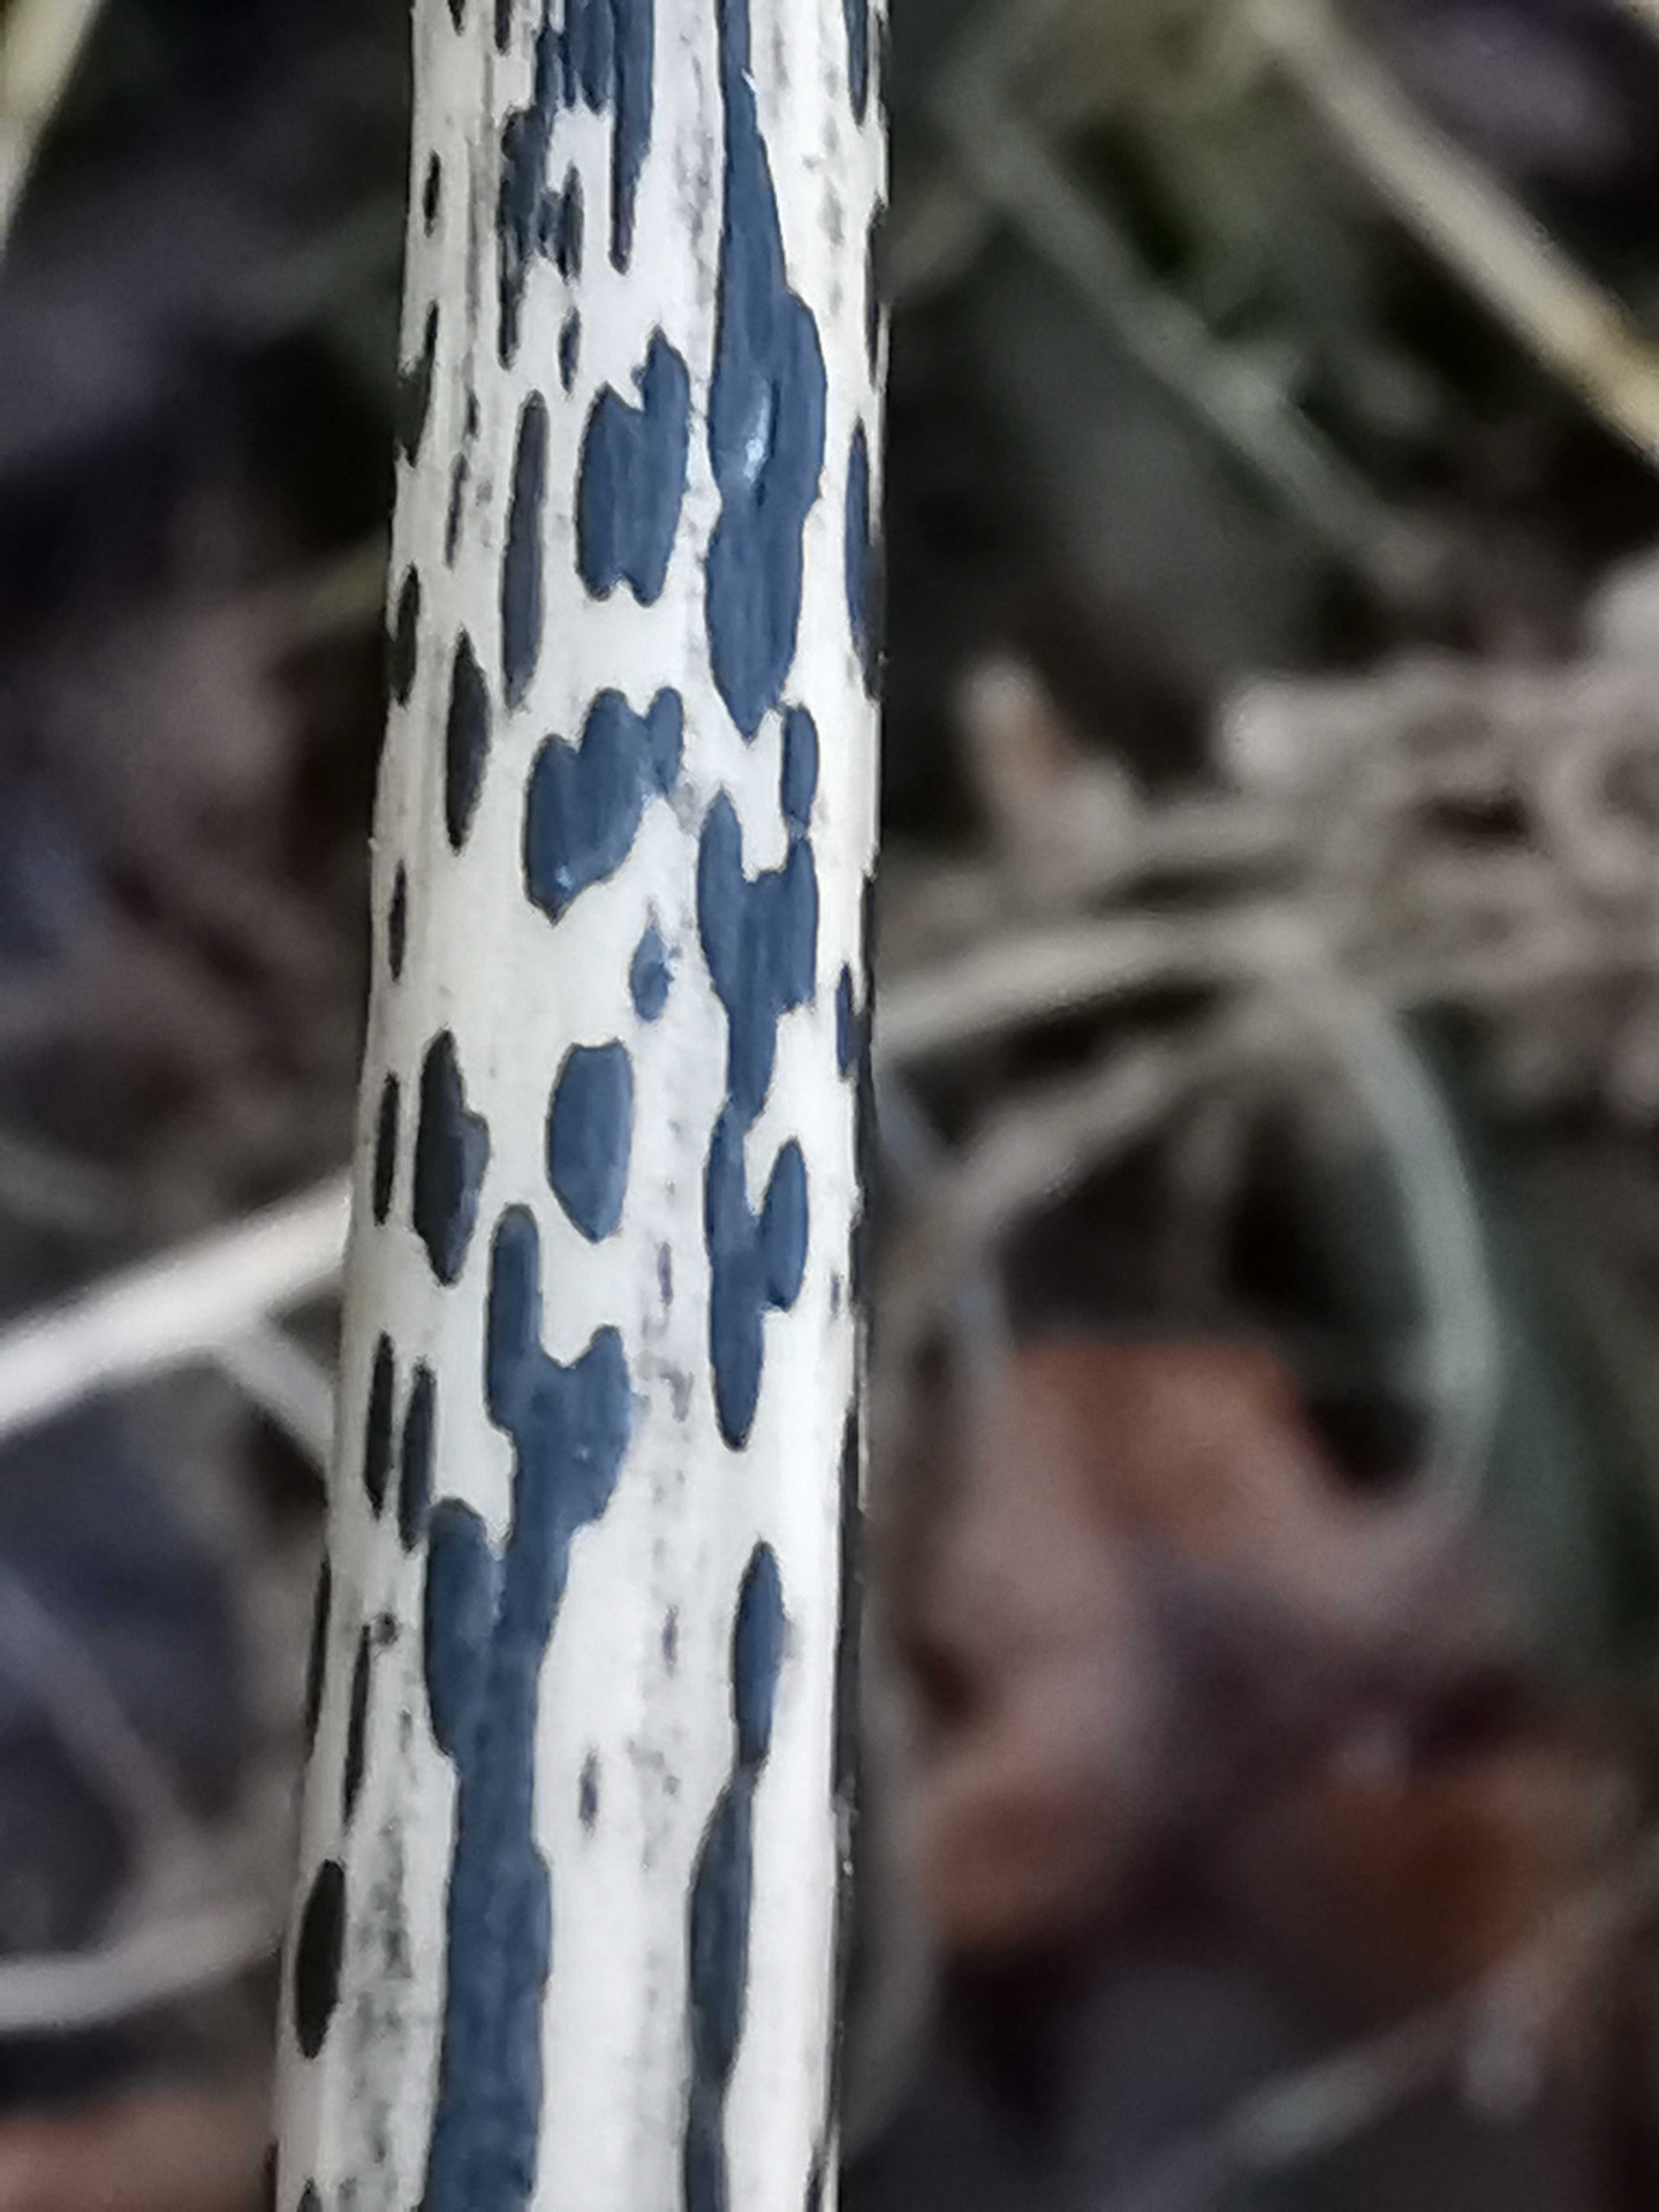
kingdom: Fungi
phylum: Ascomycota
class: Dothideomycetes
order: Pleosporales
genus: Rhopographus
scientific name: Rhopographus filicinus
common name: Bracken map
